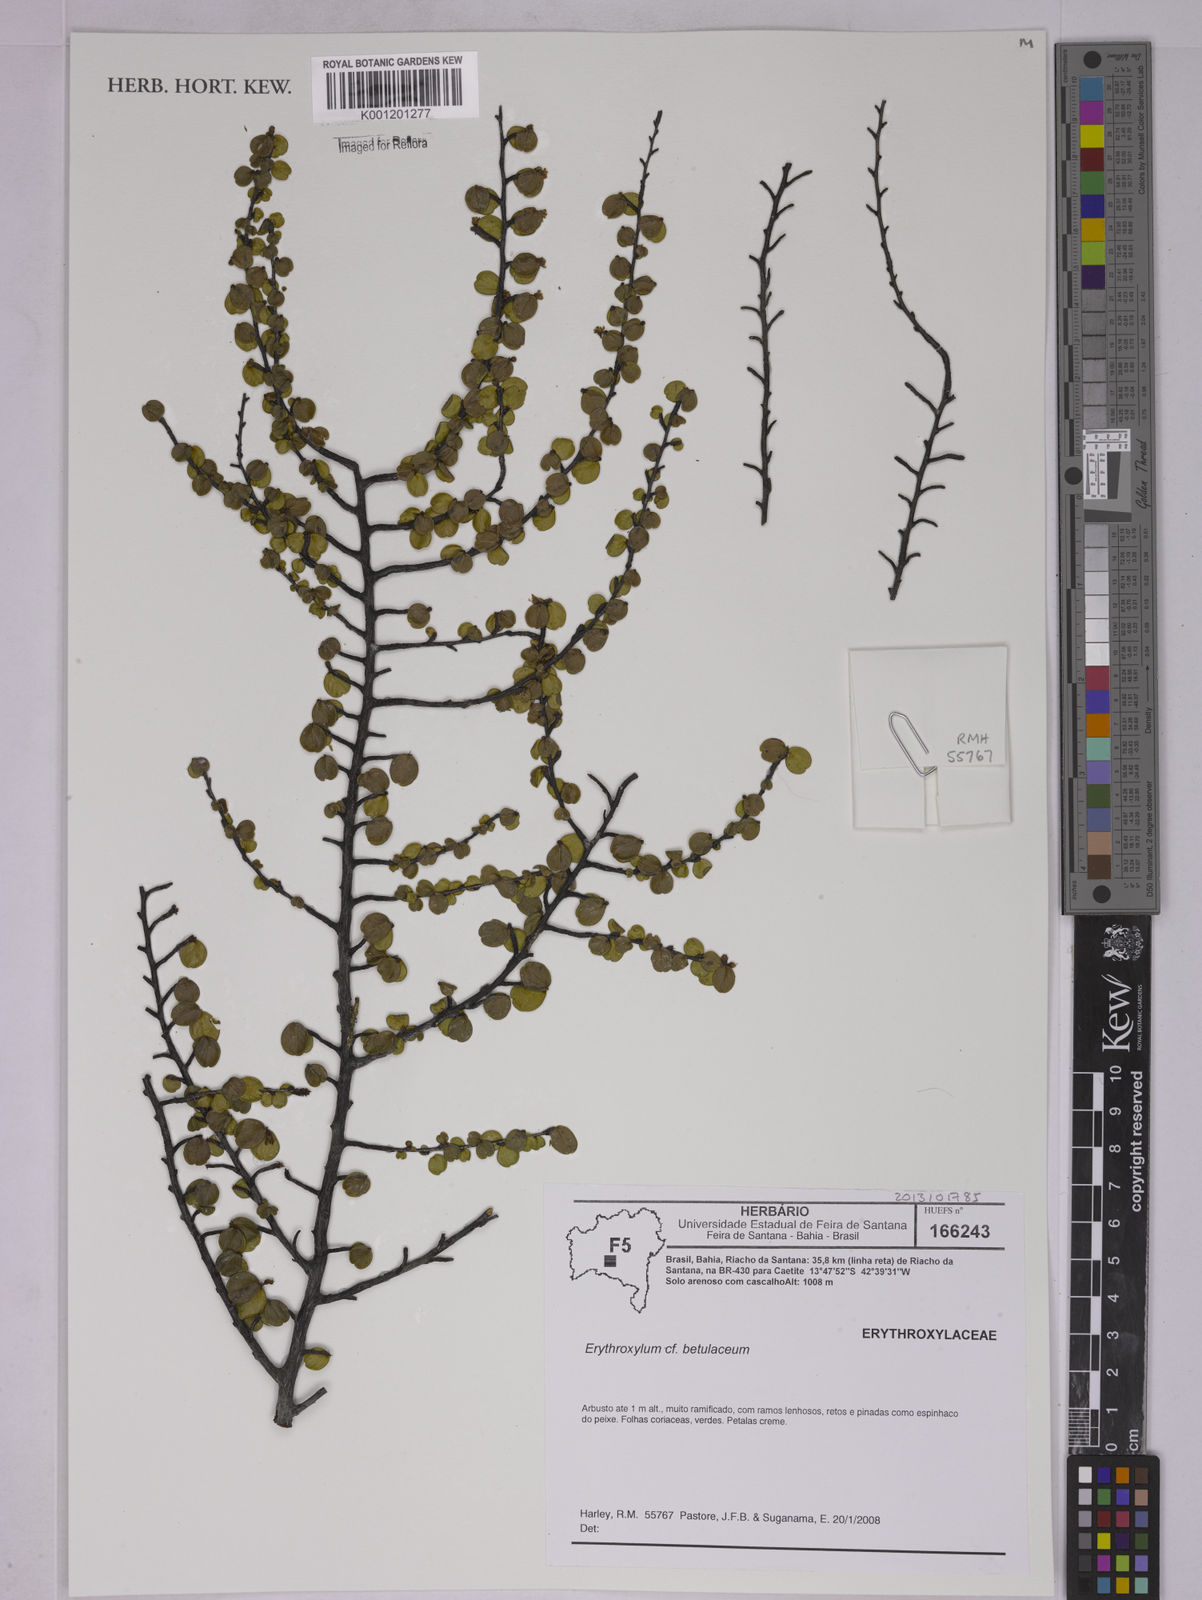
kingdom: Plantae
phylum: Tracheophyta
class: Magnoliopsida
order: Malpighiales
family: Erythroxylaceae
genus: Erythroxylum
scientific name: Erythroxylum betulaceum
